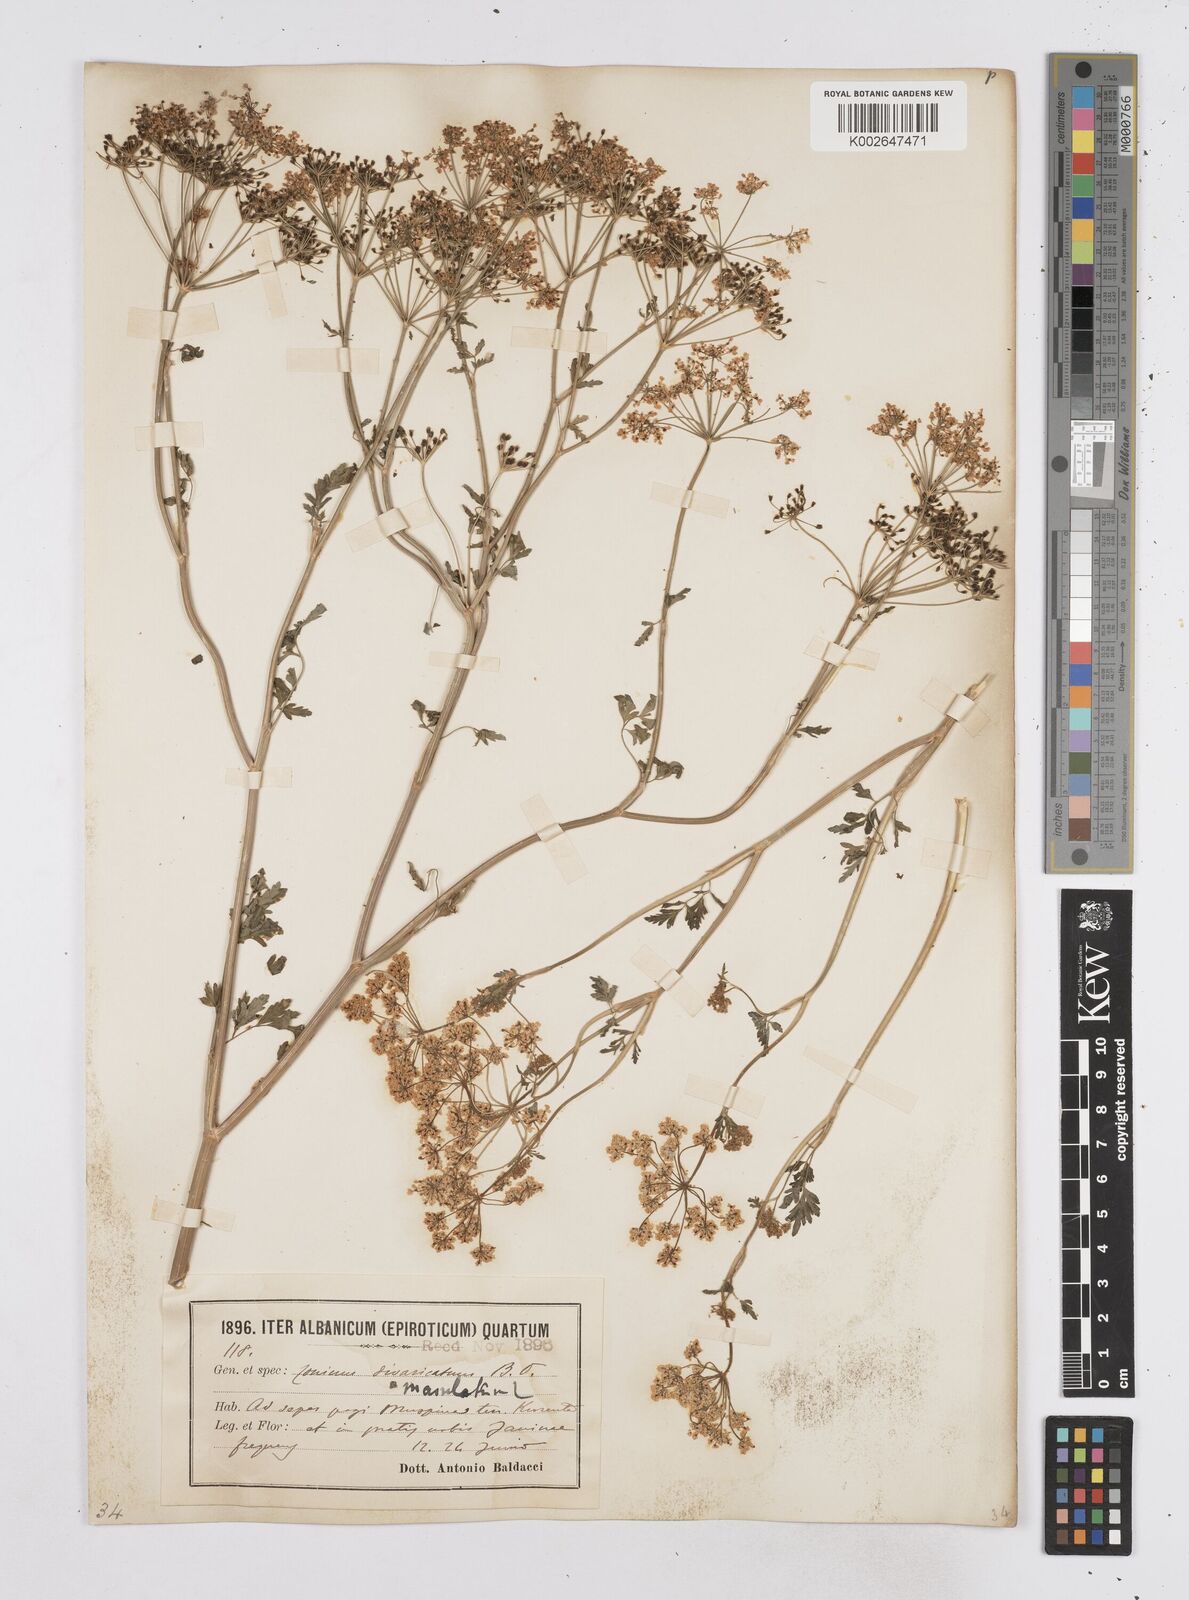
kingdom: Plantae
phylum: Tracheophyta
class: Magnoliopsida
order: Apiales
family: Apiaceae
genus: Conium
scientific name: Conium divaricatum
